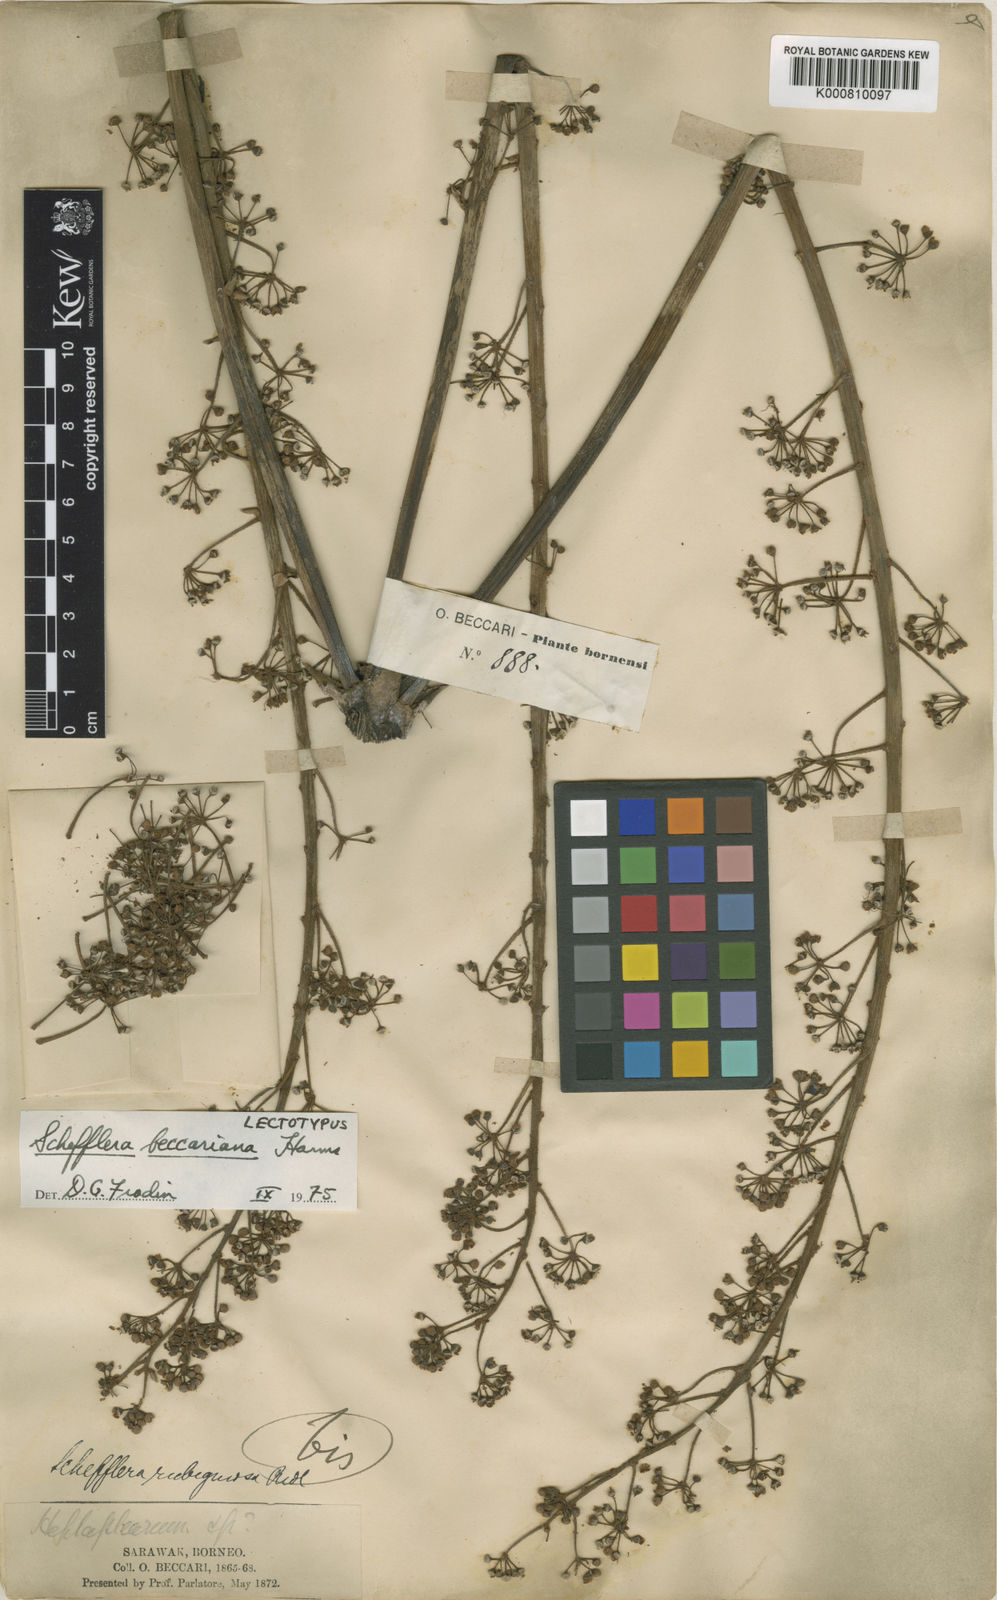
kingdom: Plantae
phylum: Tracheophyta
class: Magnoliopsida
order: Apiales
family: Araliaceae
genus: Heptapleurum
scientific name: Heptapleurum beccarianum
